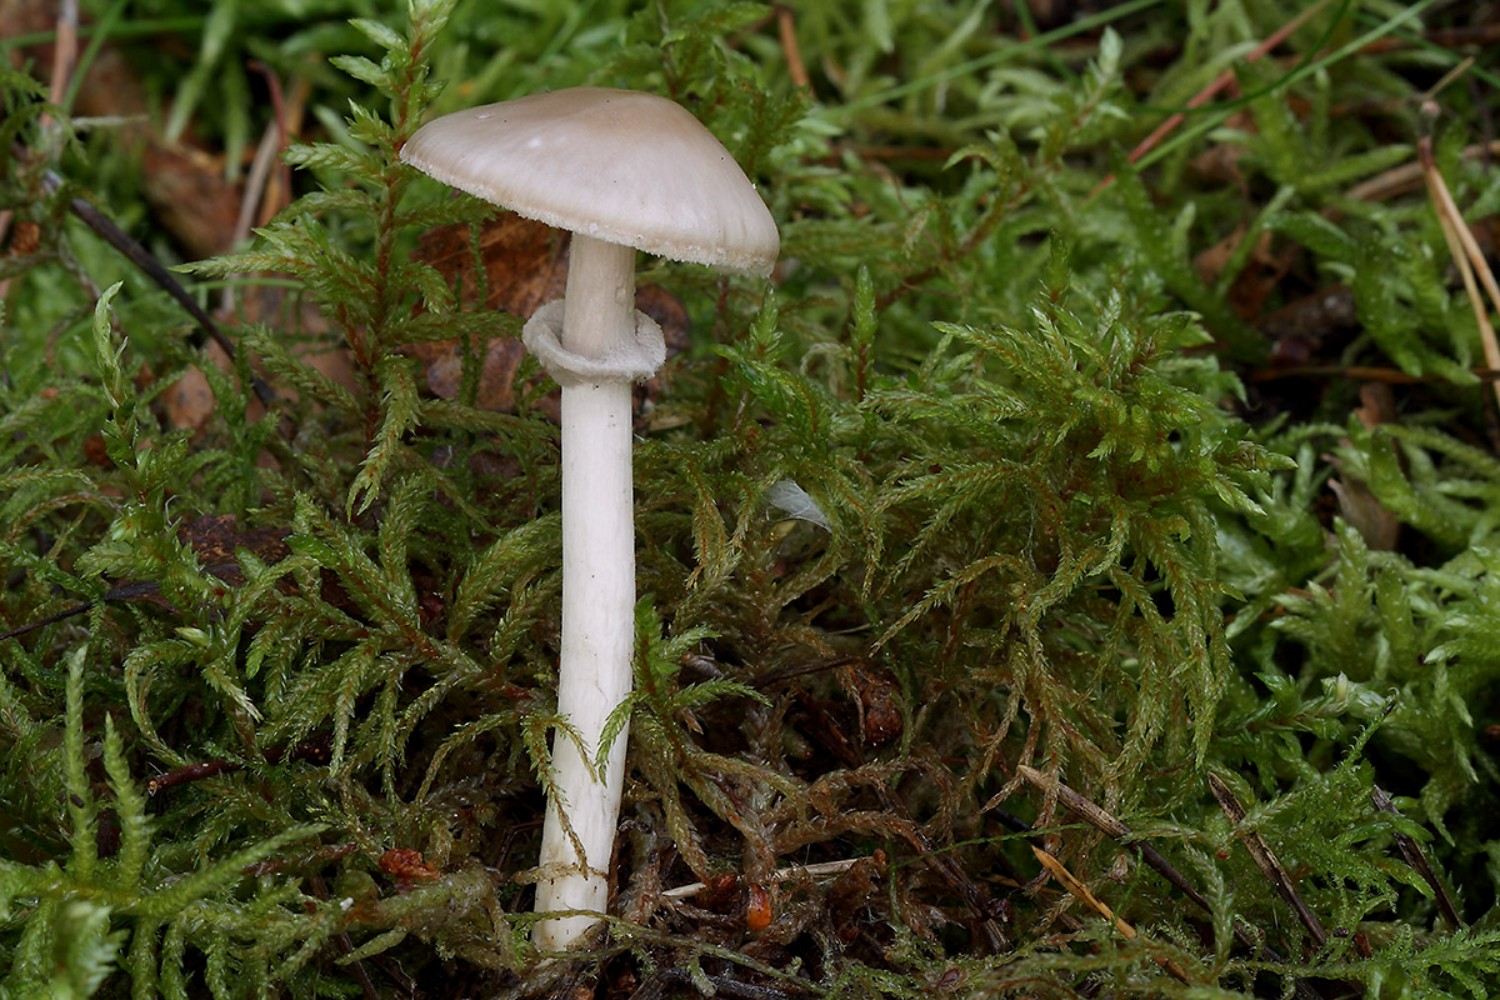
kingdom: Fungi
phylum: Basidiomycota
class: Agaricomycetes
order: Agaricales
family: Amanitaceae
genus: Amanita
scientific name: Amanita porphyria
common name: porfyr-fluesvamp
